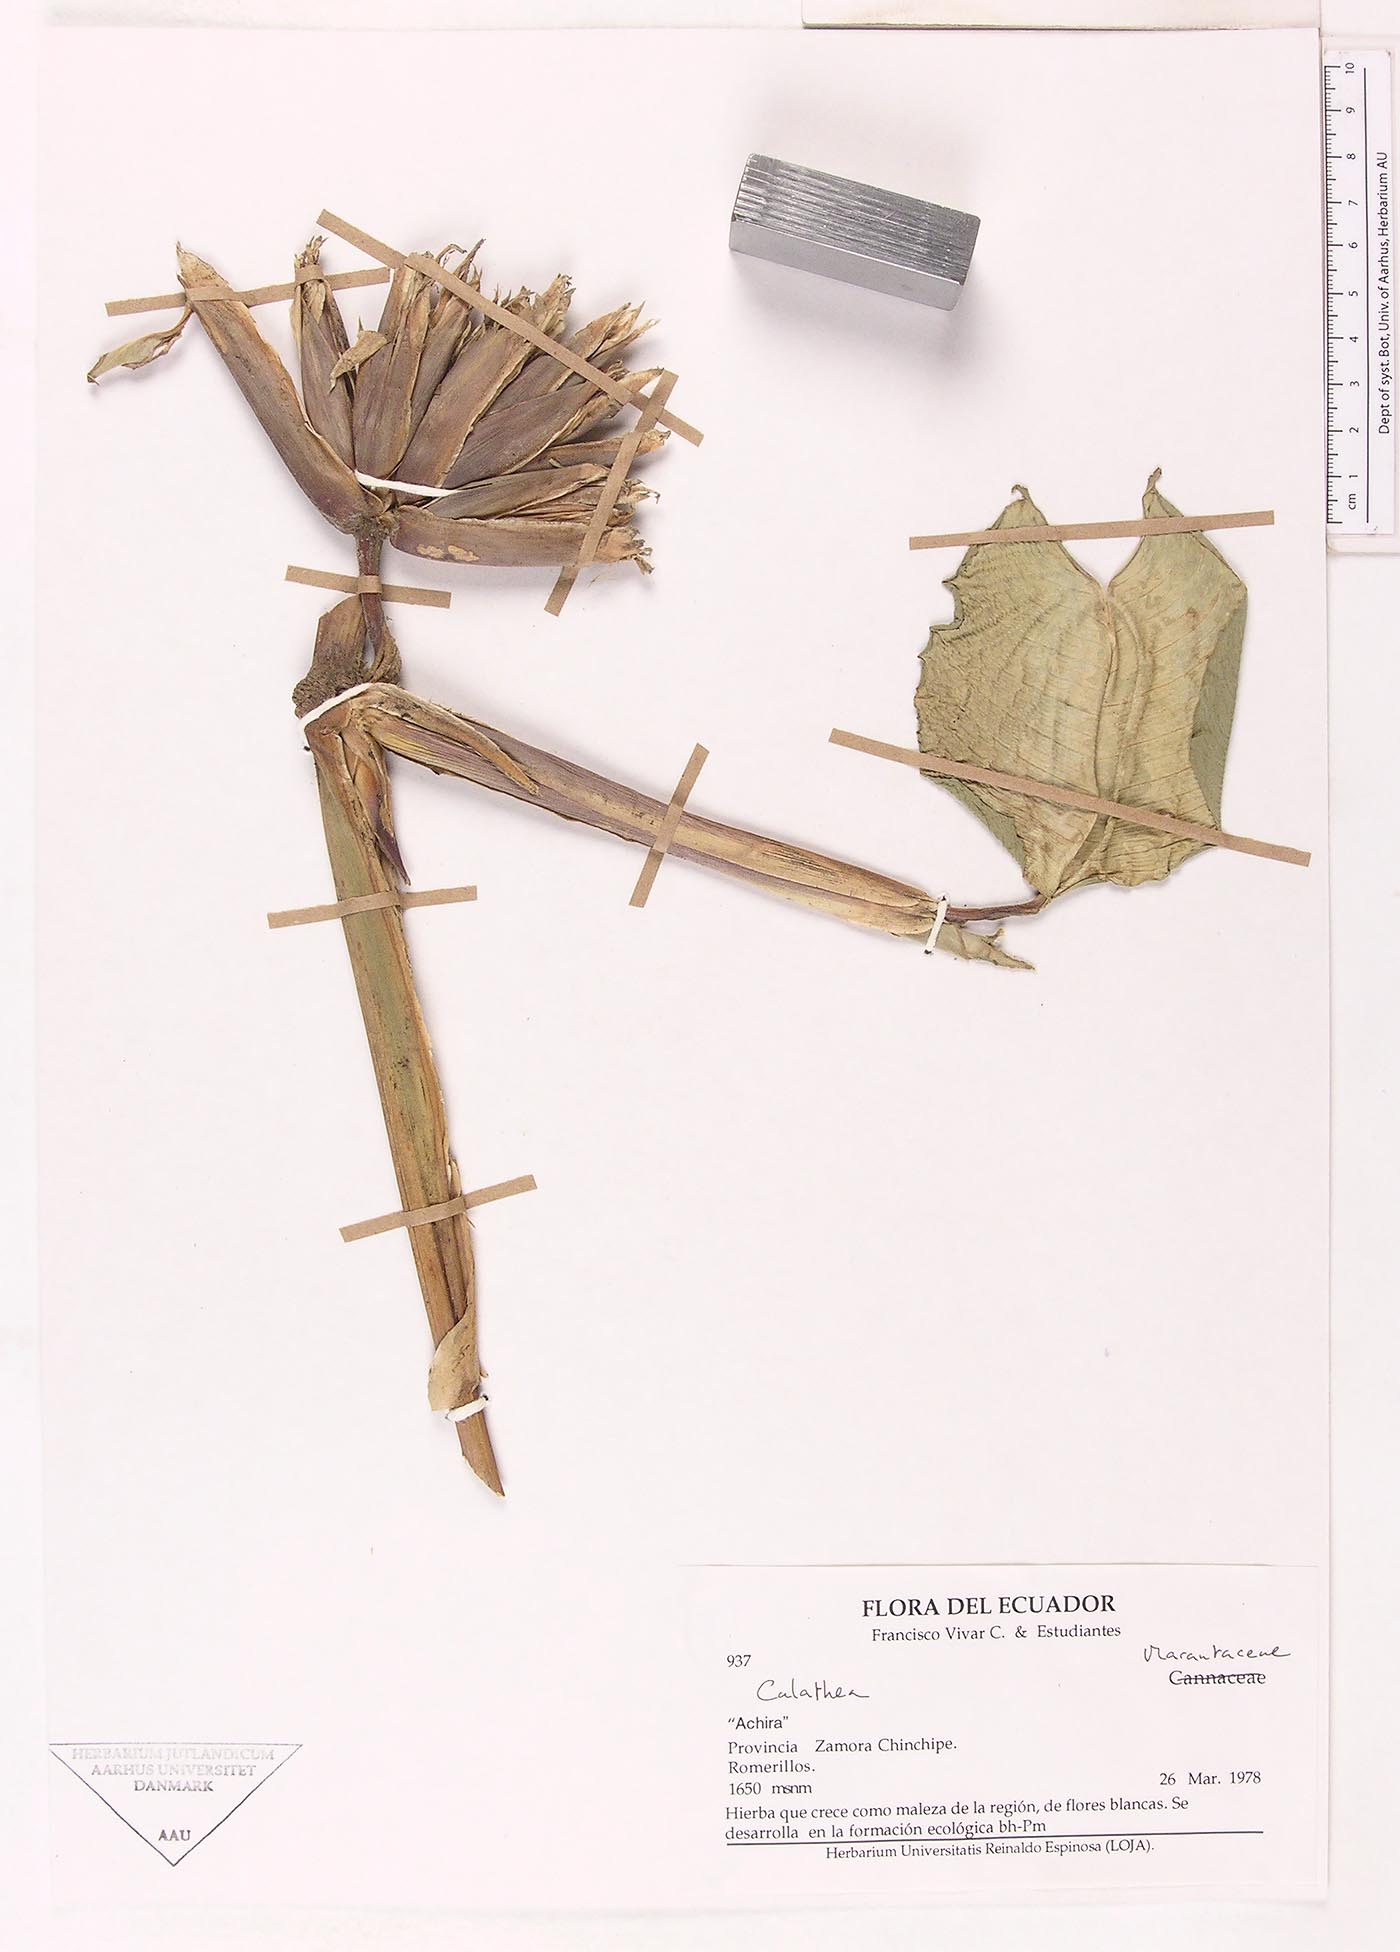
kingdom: Plantae
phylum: Tracheophyta
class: Liliopsida
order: Zingiberales
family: Marantaceae
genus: Calathea
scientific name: Calathea
